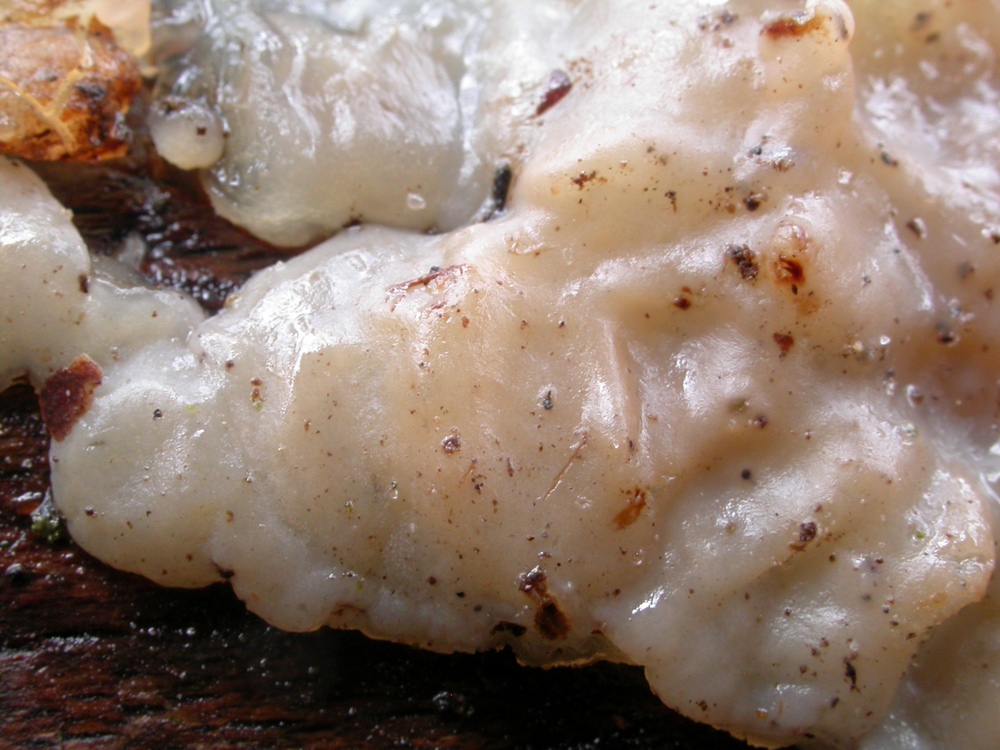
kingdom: Fungi
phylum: Basidiomycota
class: Agaricomycetes
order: Auriculariales
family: Auriculariaceae
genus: Exidia
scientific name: Exidia thuretiana
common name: hvidlig bævretop
